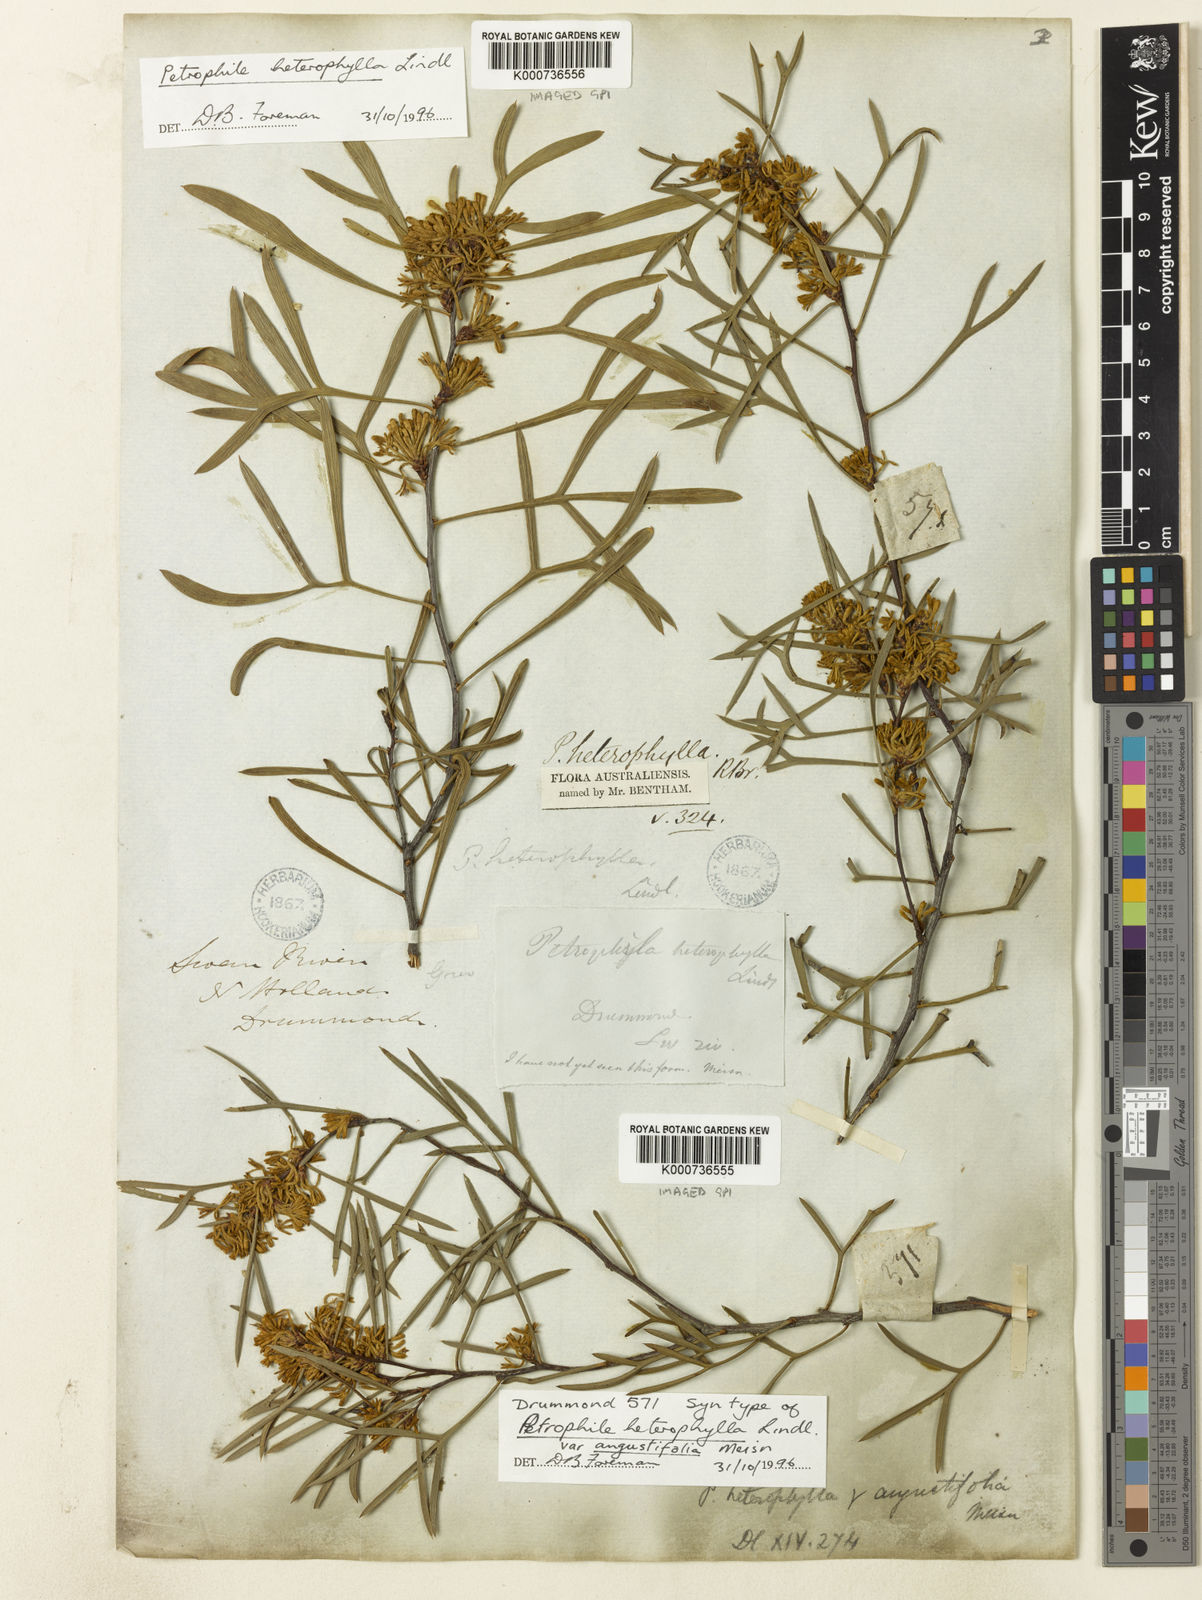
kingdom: Plantae
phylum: Tracheophyta
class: Magnoliopsida
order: Proteales
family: Proteaceae
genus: Petrophile
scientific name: Petrophile heterophylla
